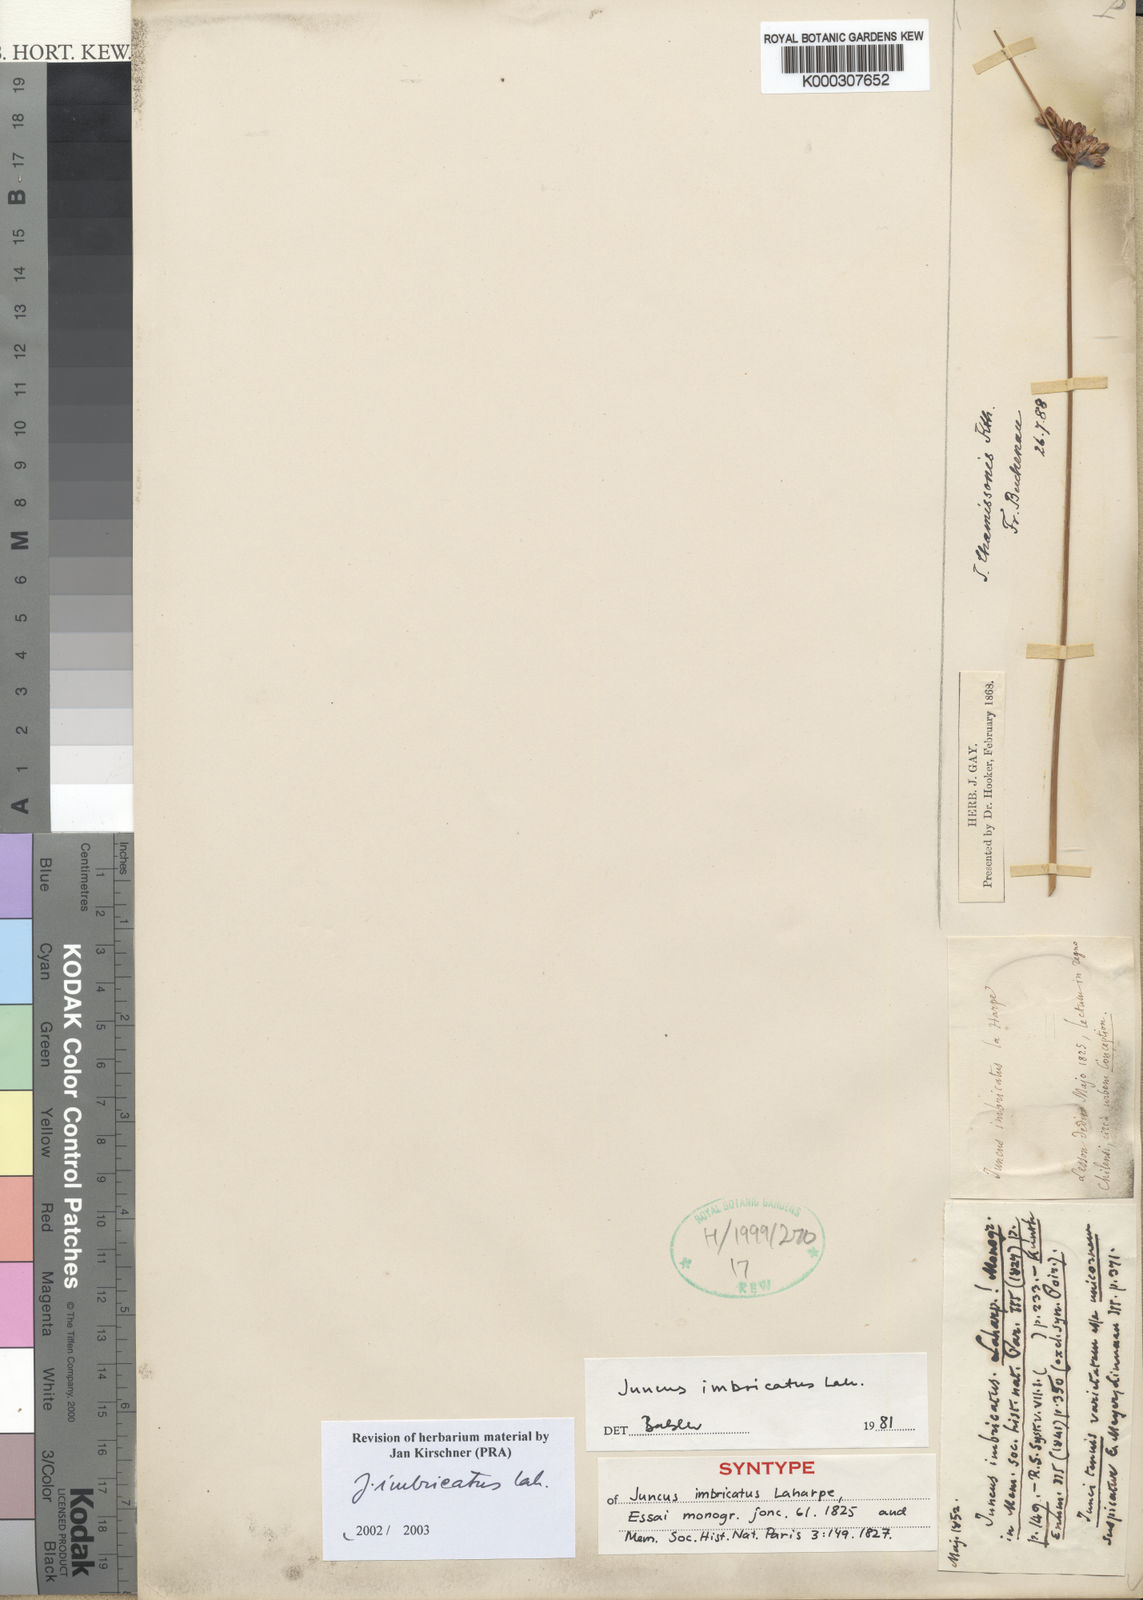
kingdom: Plantae
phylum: Tracheophyta
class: Liliopsida
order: Poales
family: Juncaceae
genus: Juncus
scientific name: Juncus imbricatus
